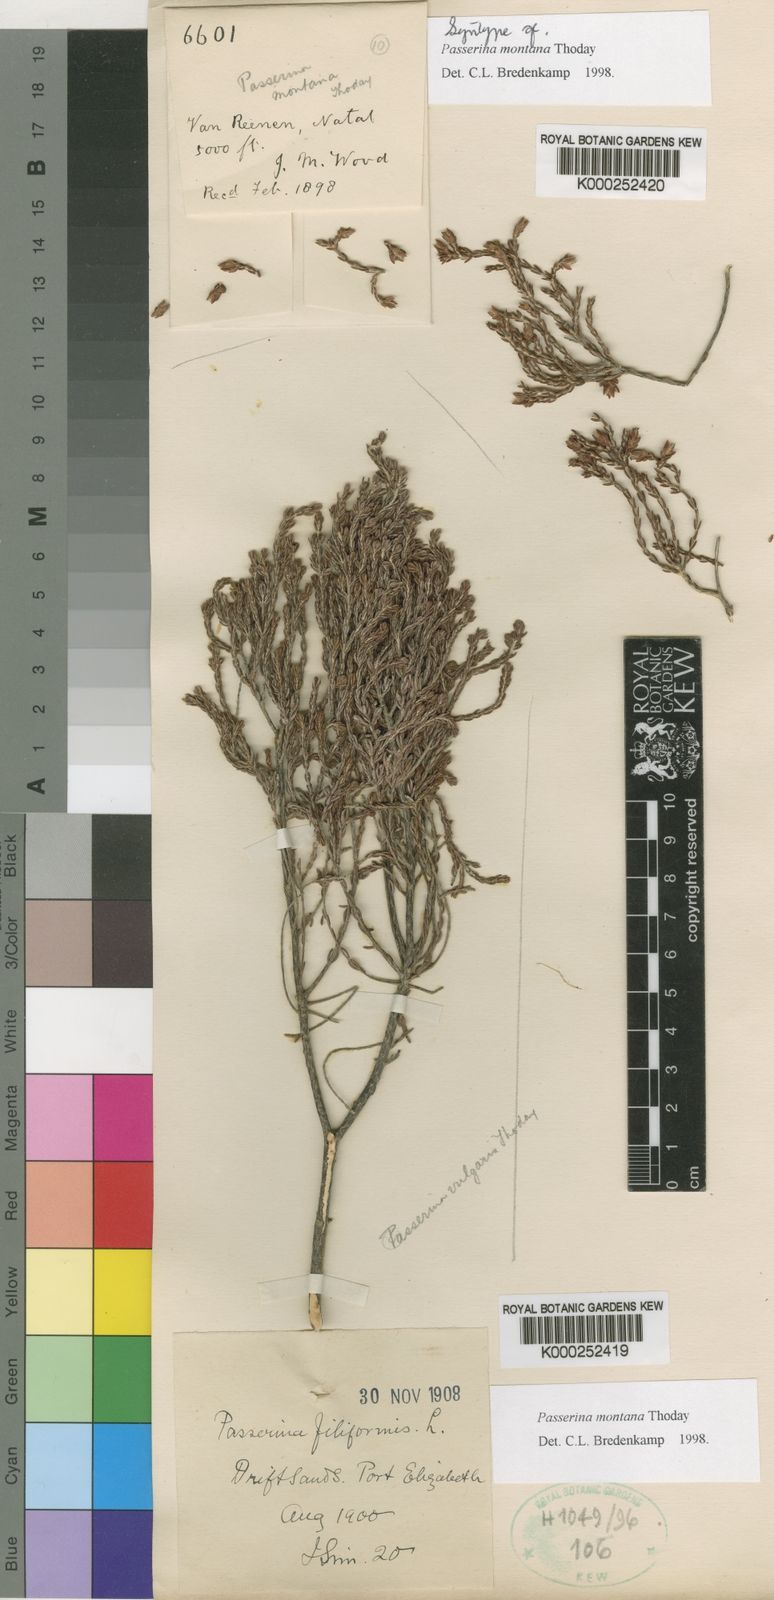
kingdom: Plantae
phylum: Tracheophyta
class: Magnoliopsida
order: Malvales
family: Thymelaeaceae
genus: Passerina
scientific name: Passerina montana
